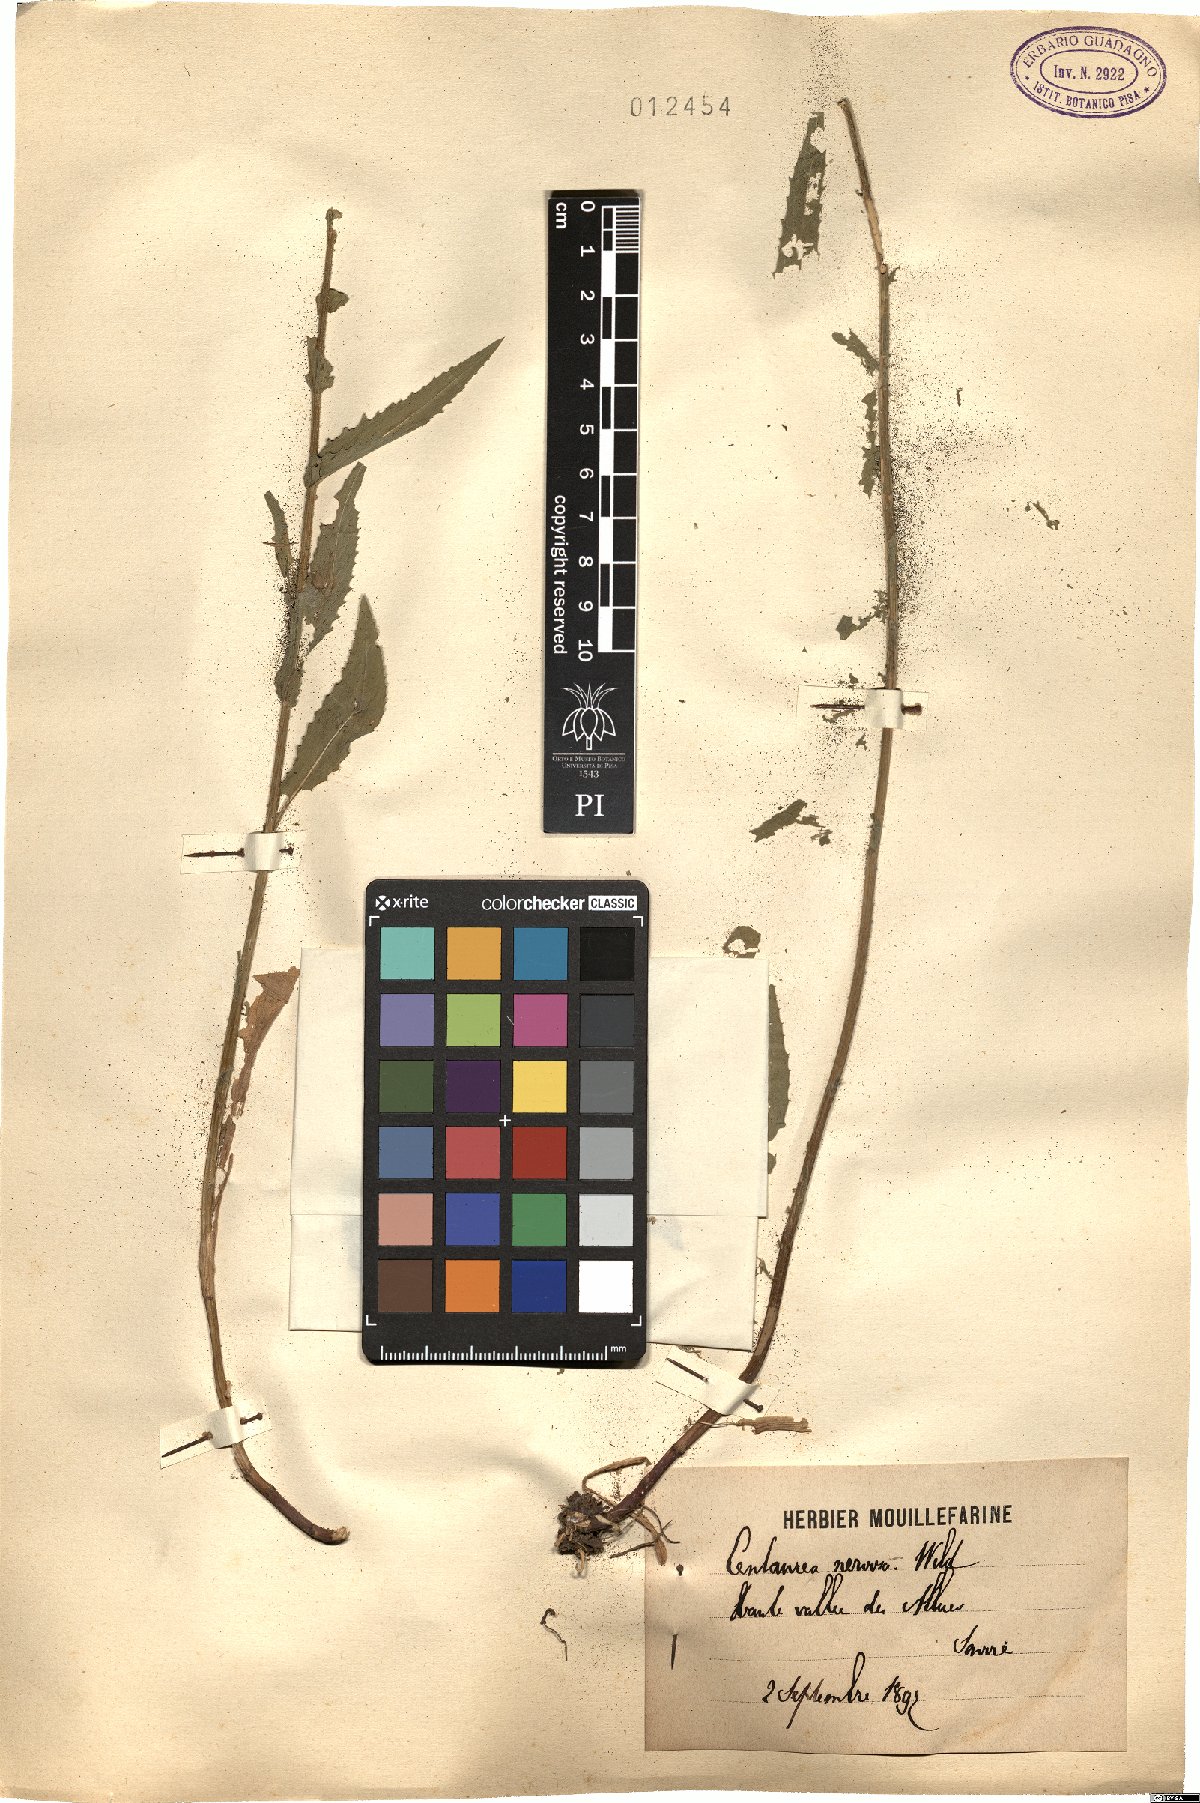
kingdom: Plantae
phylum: Tracheophyta
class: Magnoliopsida
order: Asterales
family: Asteraceae
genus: Centaurea
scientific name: Centaurea nervosa
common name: Singleflower knapweed
